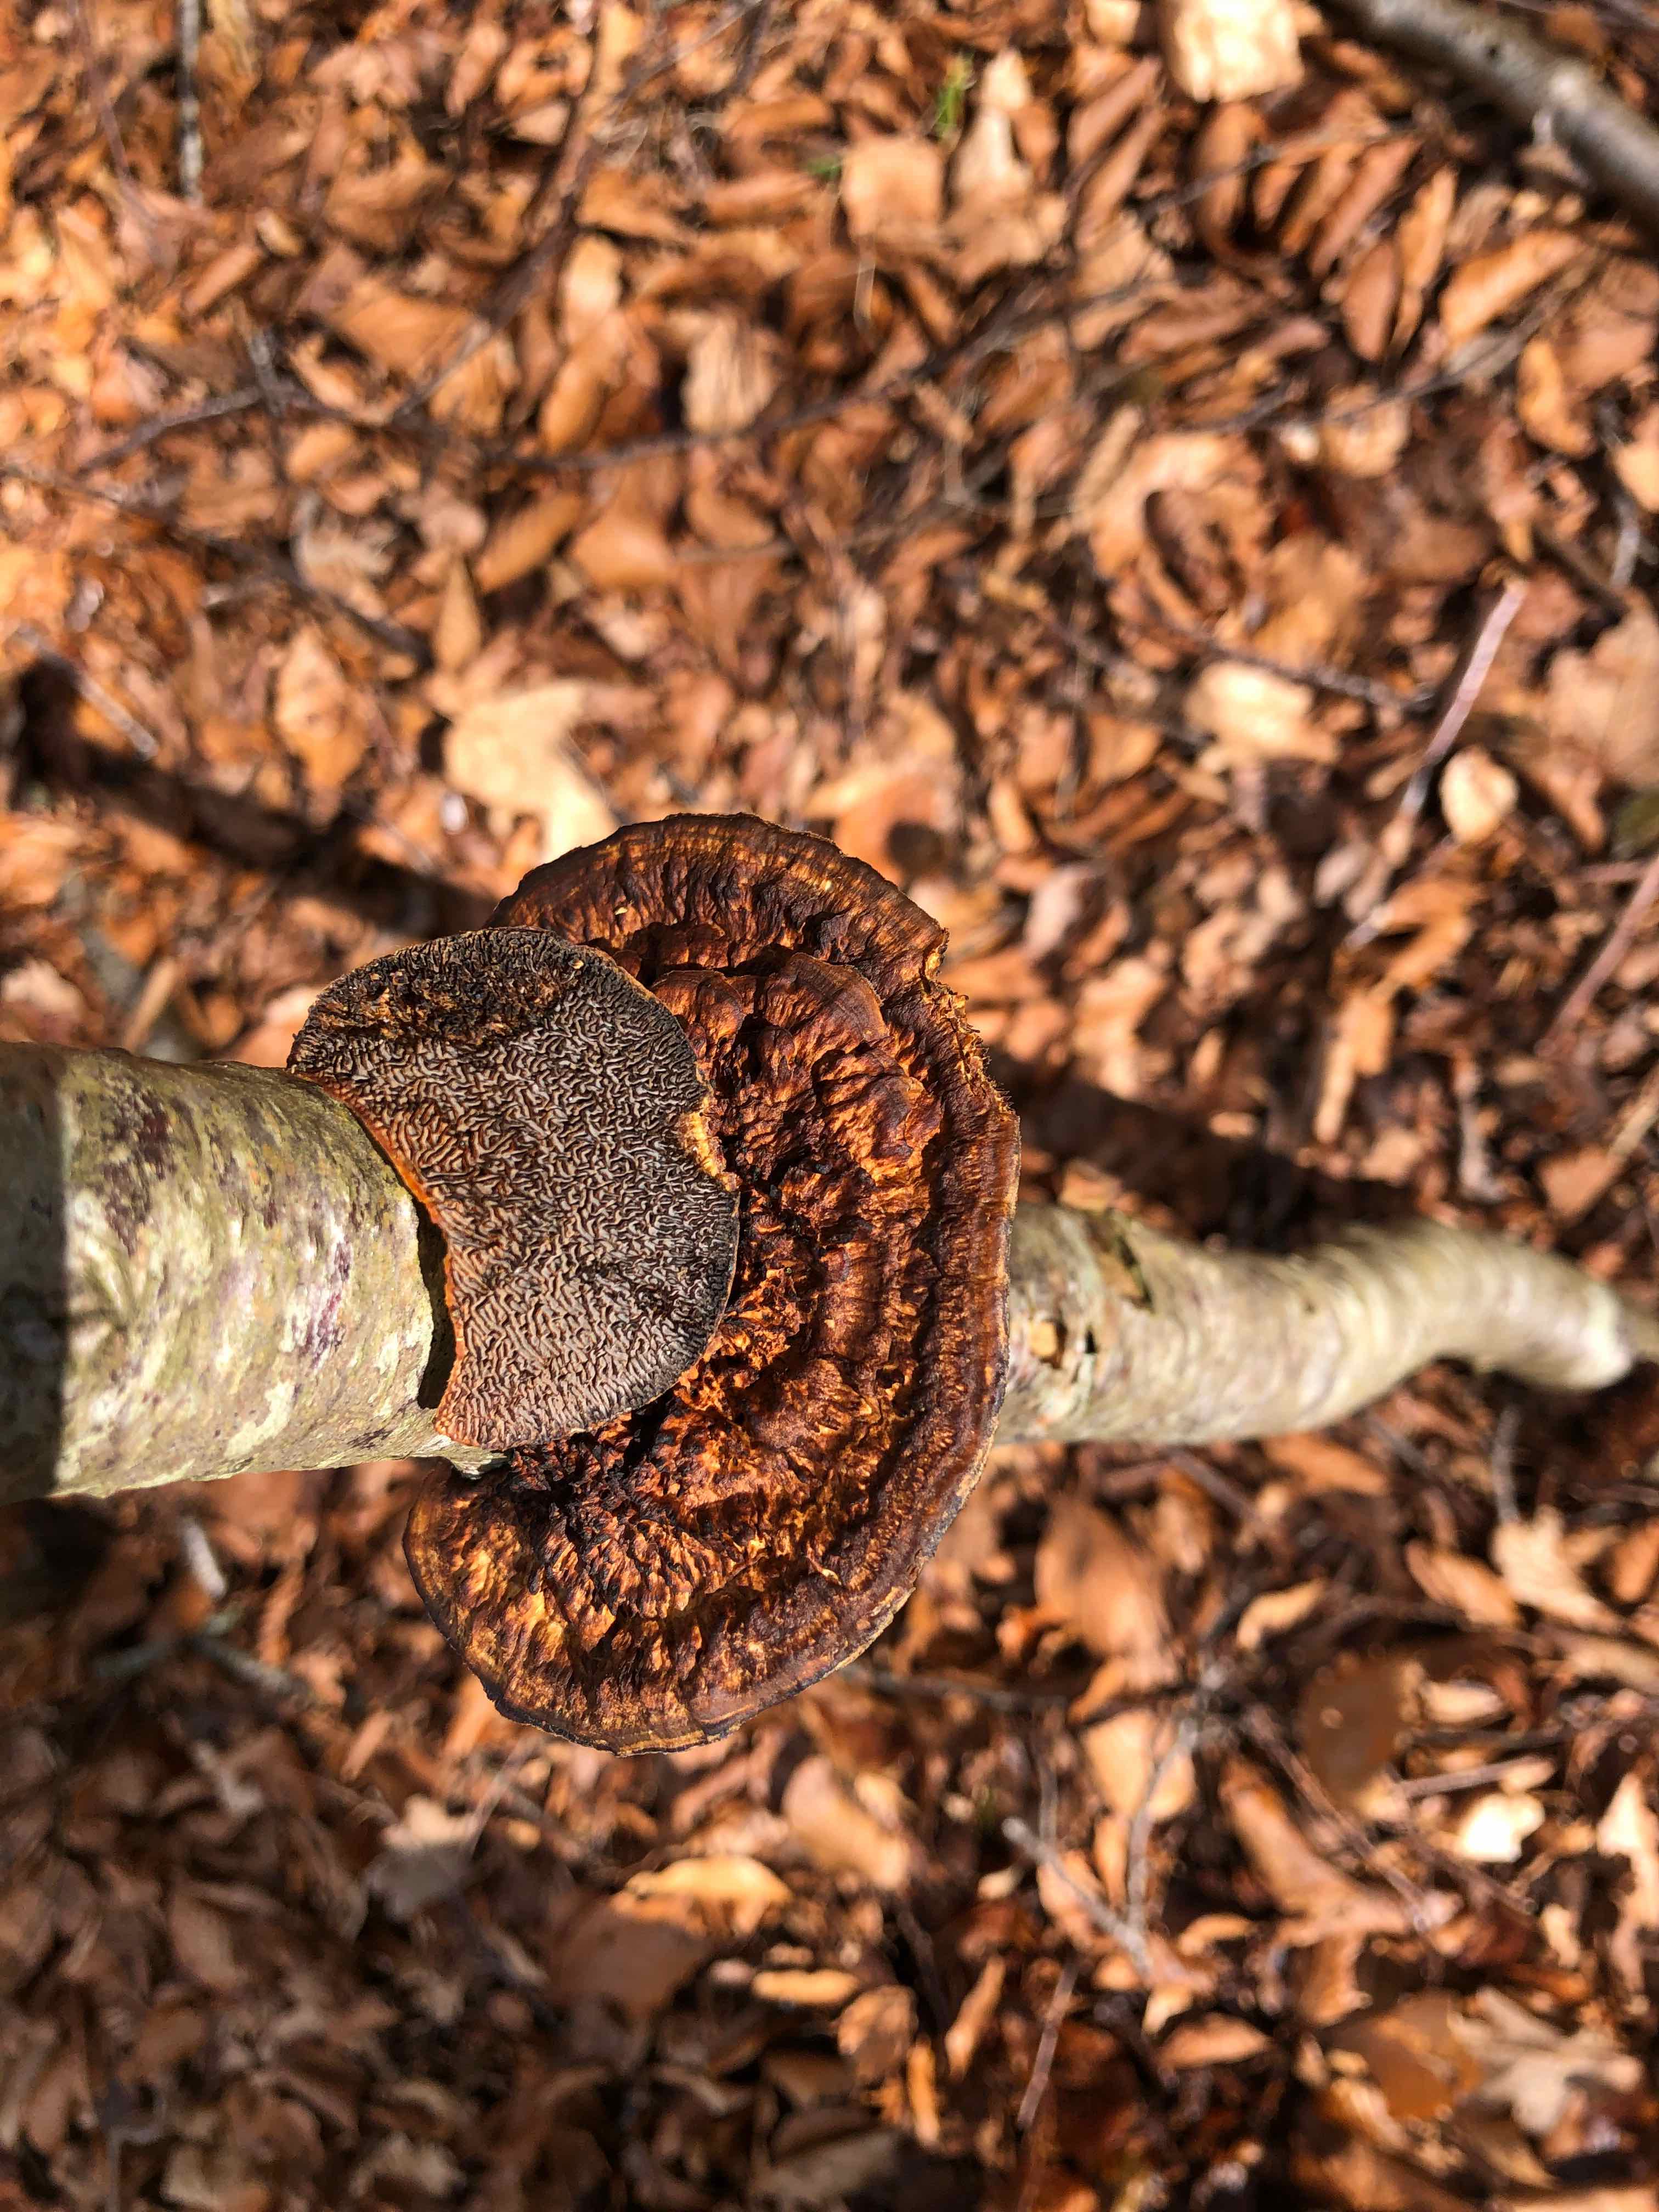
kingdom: Fungi
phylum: Basidiomycota
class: Agaricomycetes
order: Polyporales
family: Polyporaceae
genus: Daedaleopsis
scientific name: Daedaleopsis confragosa
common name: rødmende læderporesvamp
